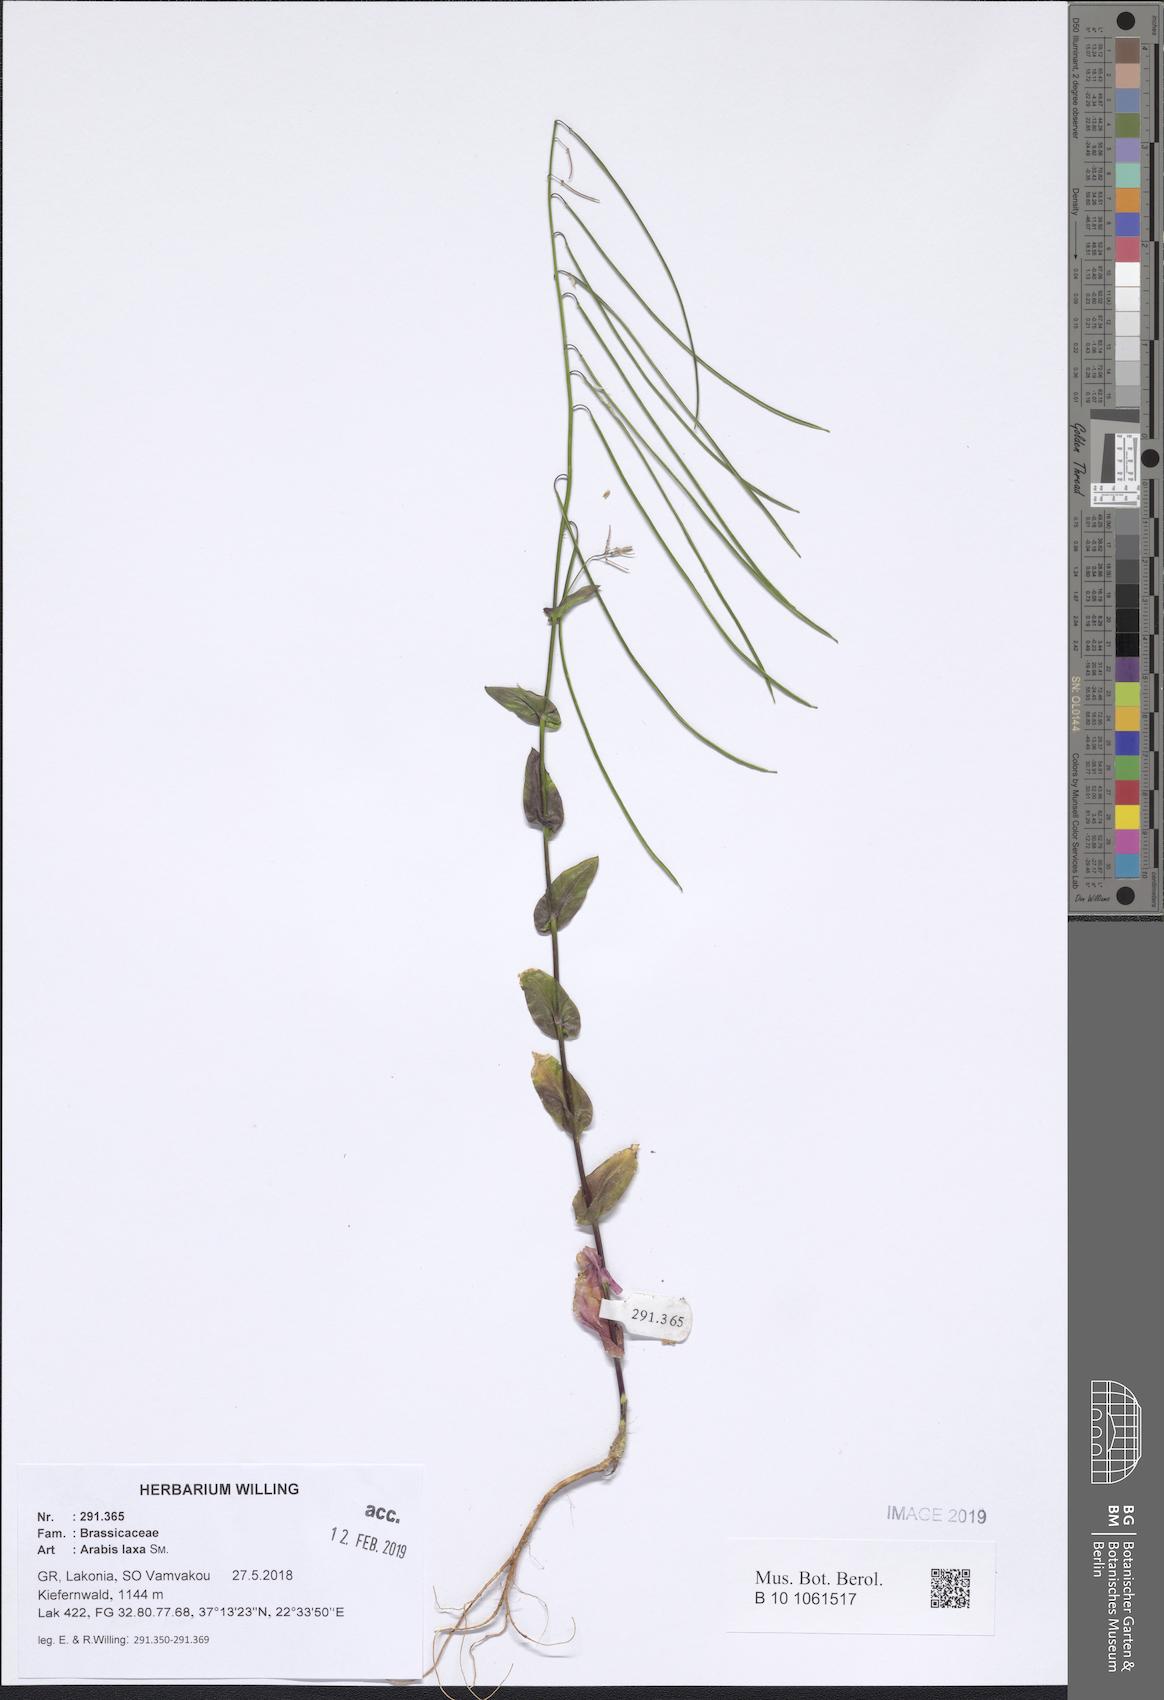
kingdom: Plantae
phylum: Tracheophyta
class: Magnoliopsida
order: Brassicales
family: Brassicaceae
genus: Turritis
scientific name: Turritis laxa
